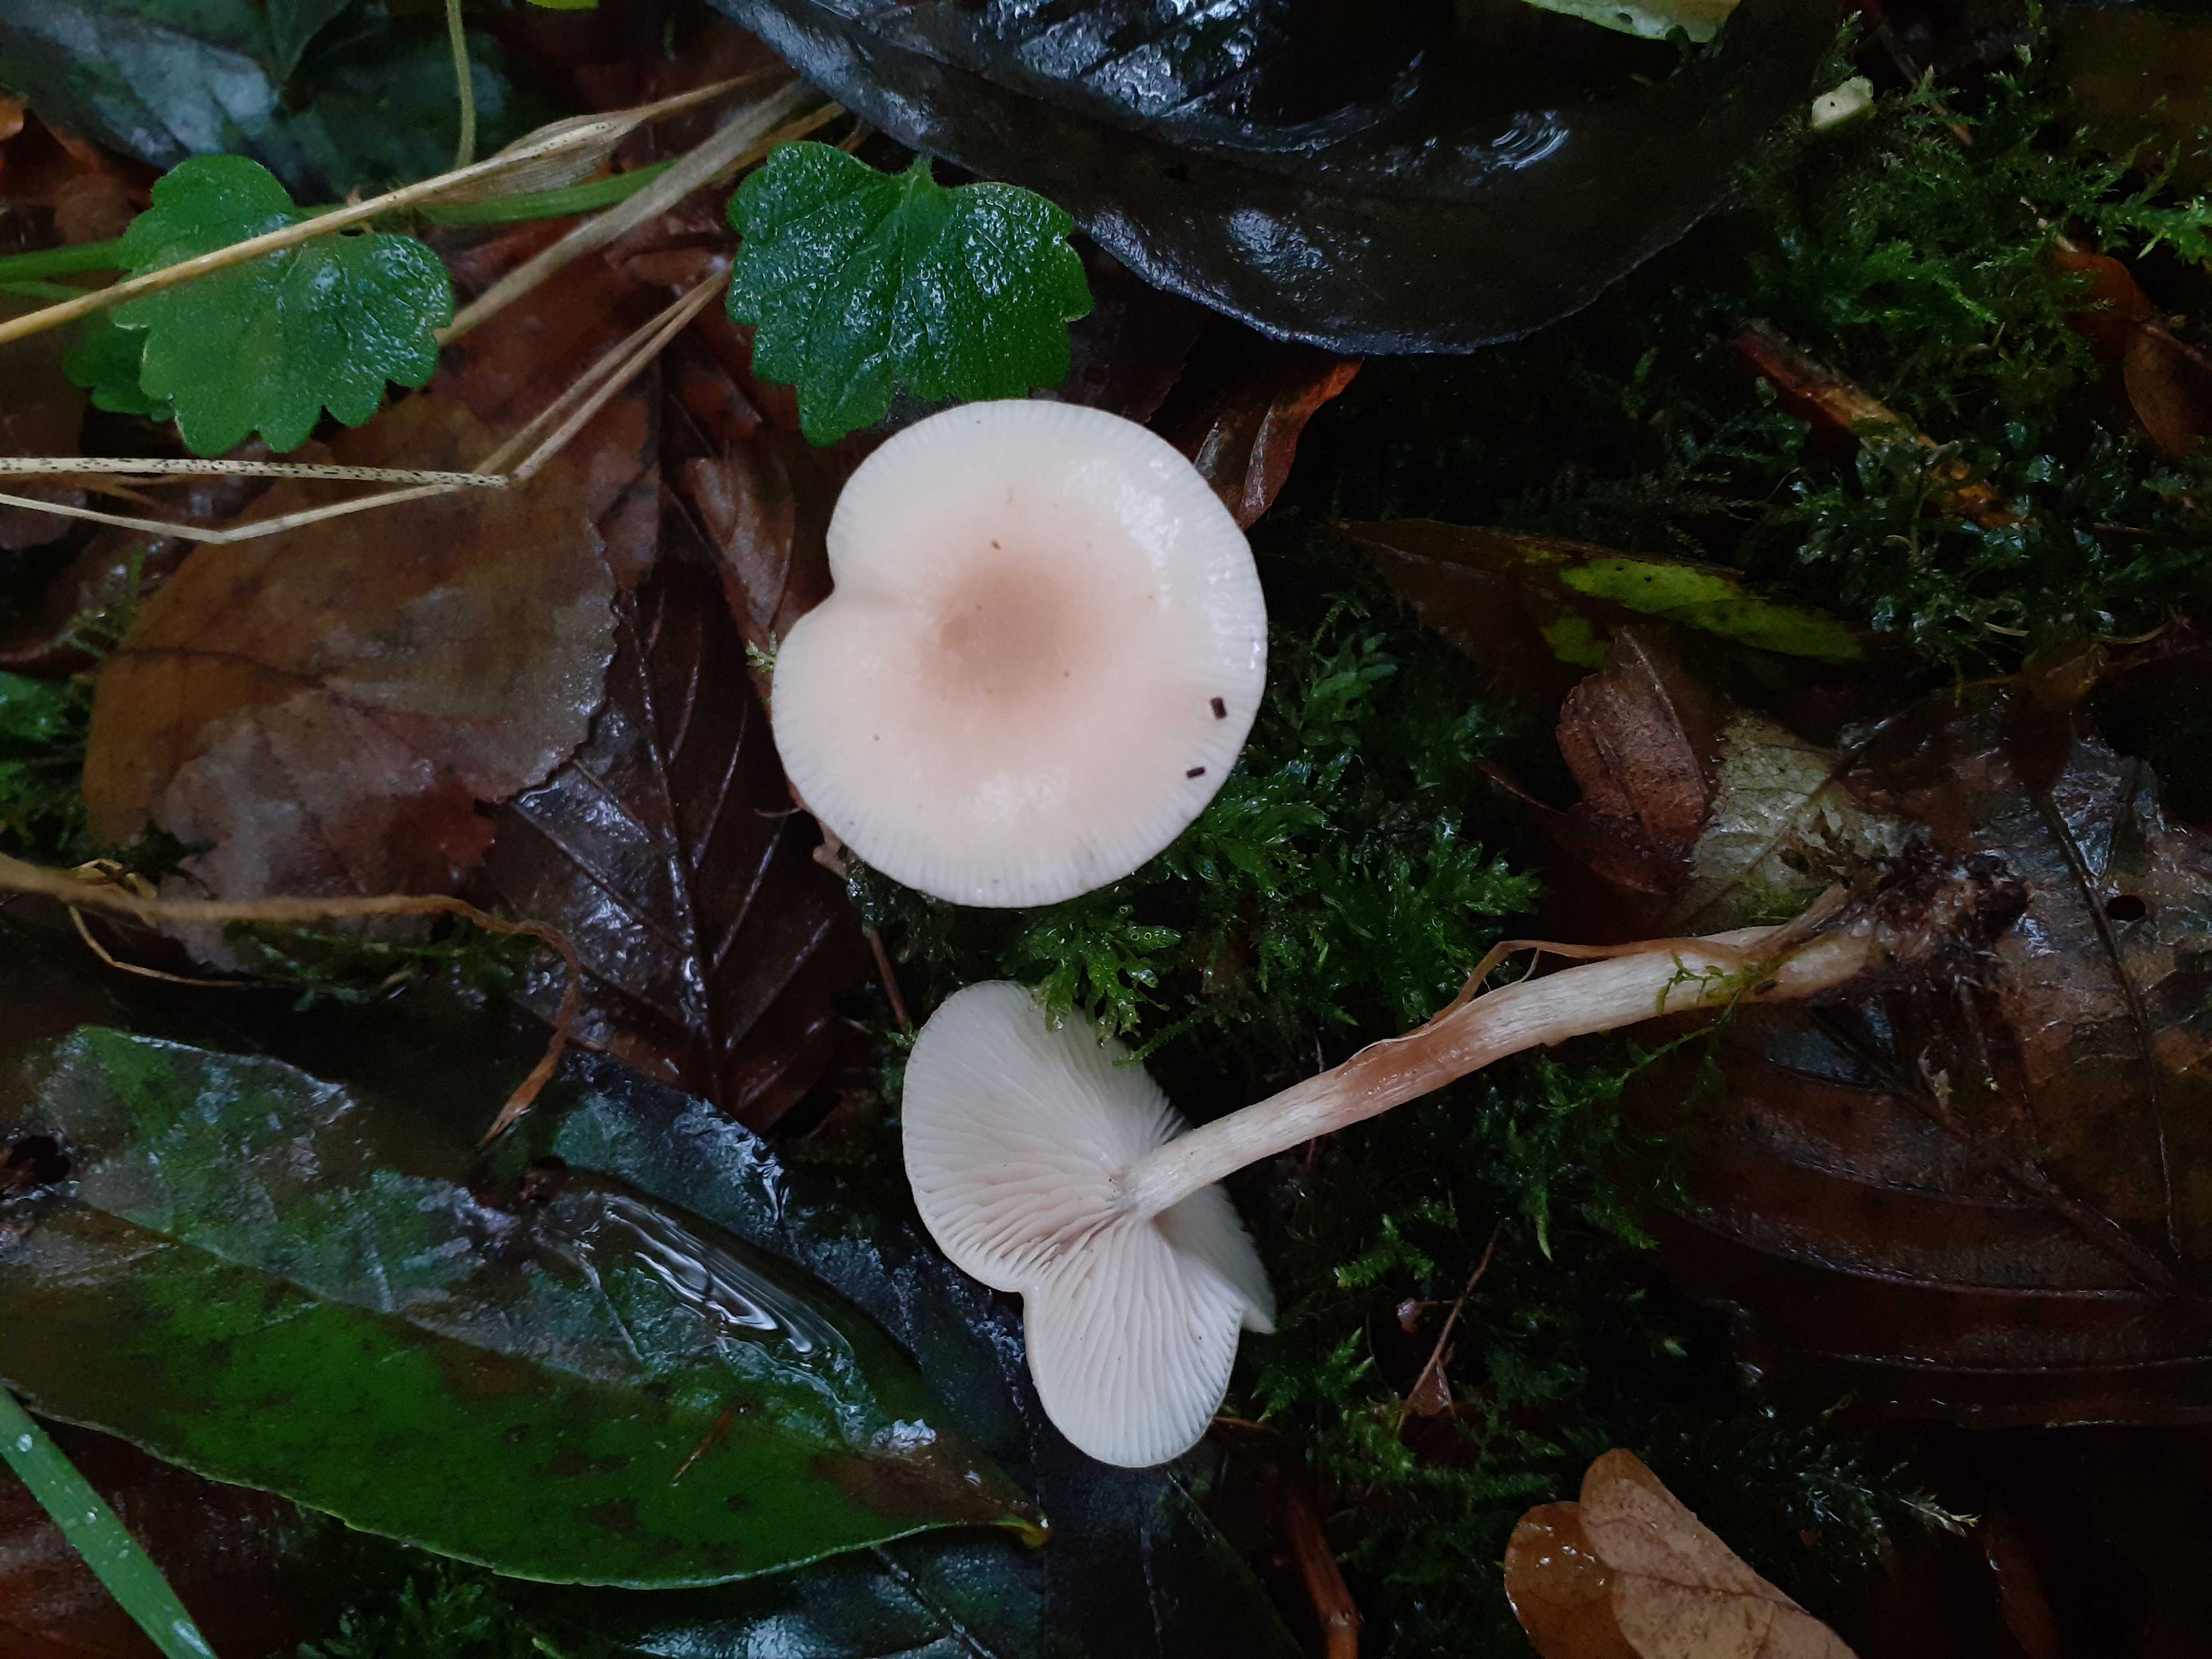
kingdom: Fungi
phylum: Basidiomycota
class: Agaricomycetes
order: Agaricales
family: Tricholomataceae
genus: Clitocybe
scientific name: Clitocybe fragrans
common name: vellugtende tragthat
